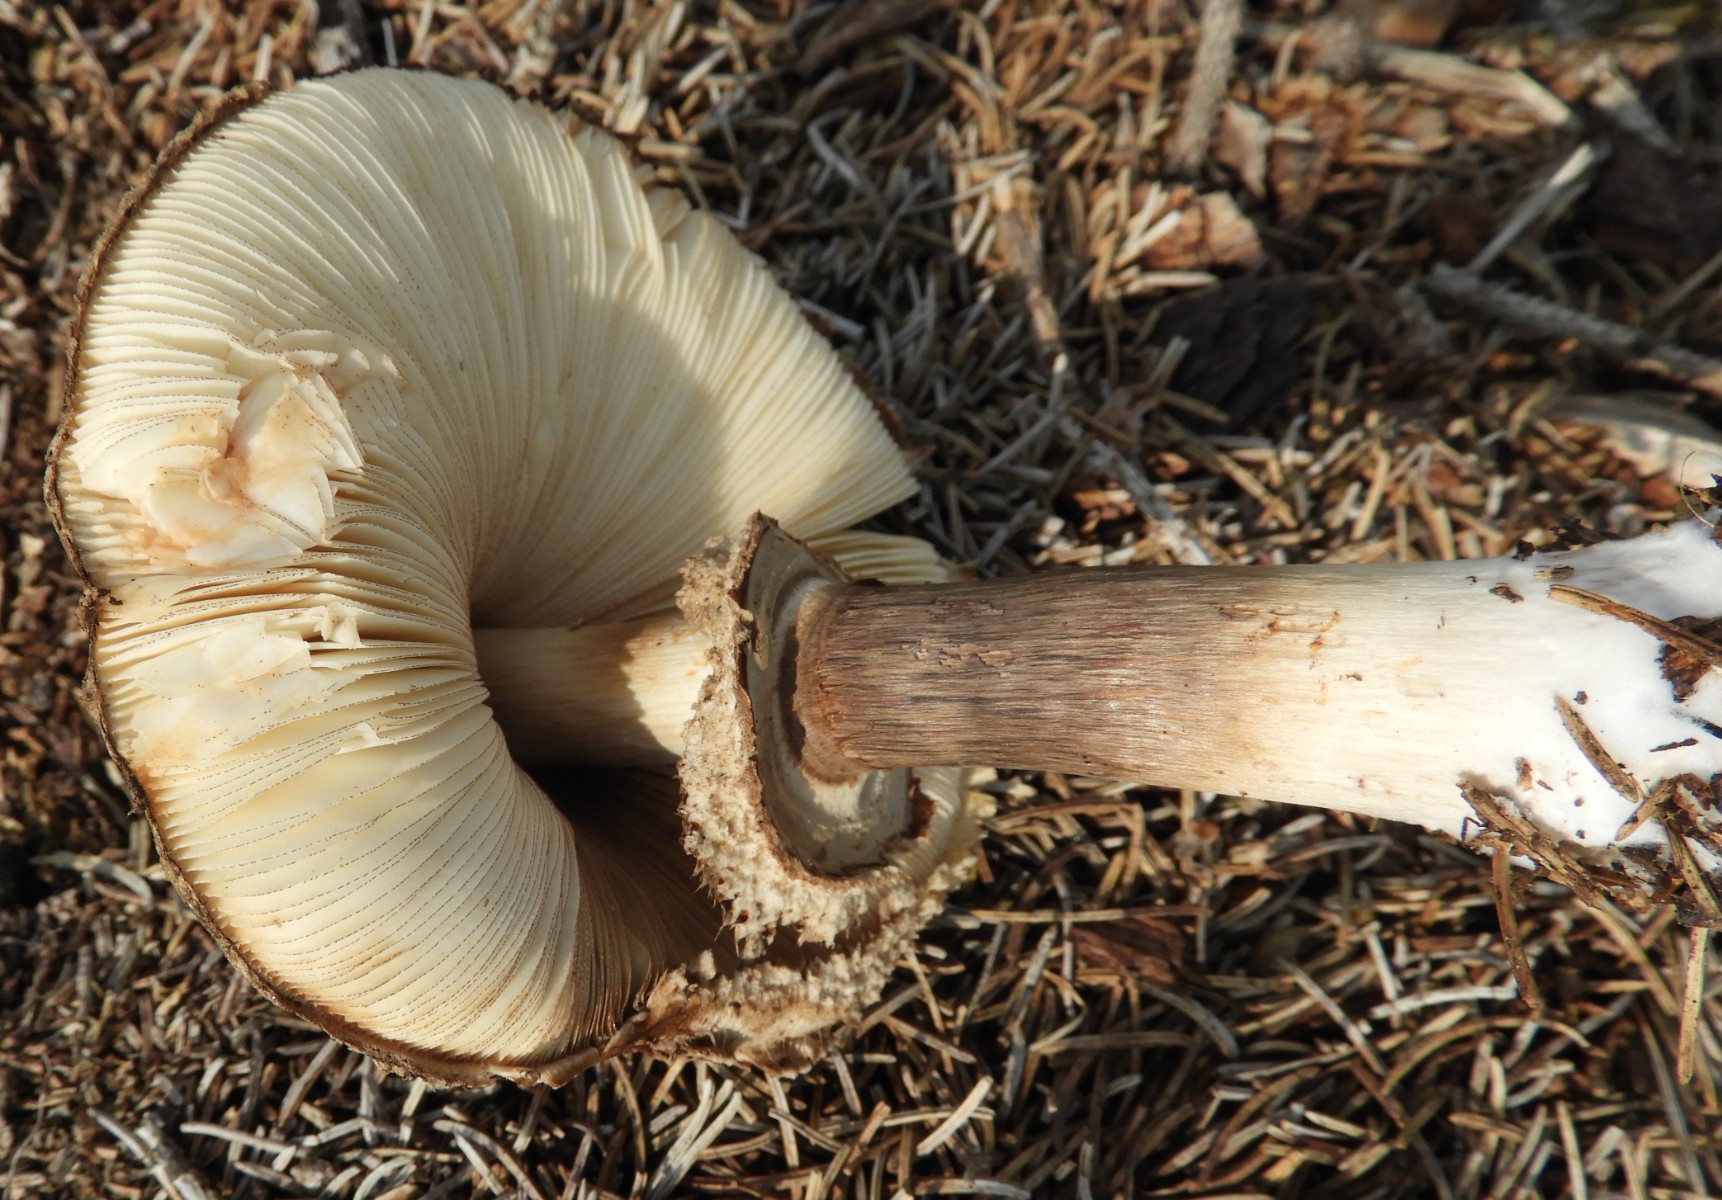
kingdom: Fungi
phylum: Basidiomycota
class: Agaricomycetes
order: Agaricales
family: Agaricaceae
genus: Chlorophyllum
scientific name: Chlorophyllum olivieri
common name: almindelig rabarberhat
